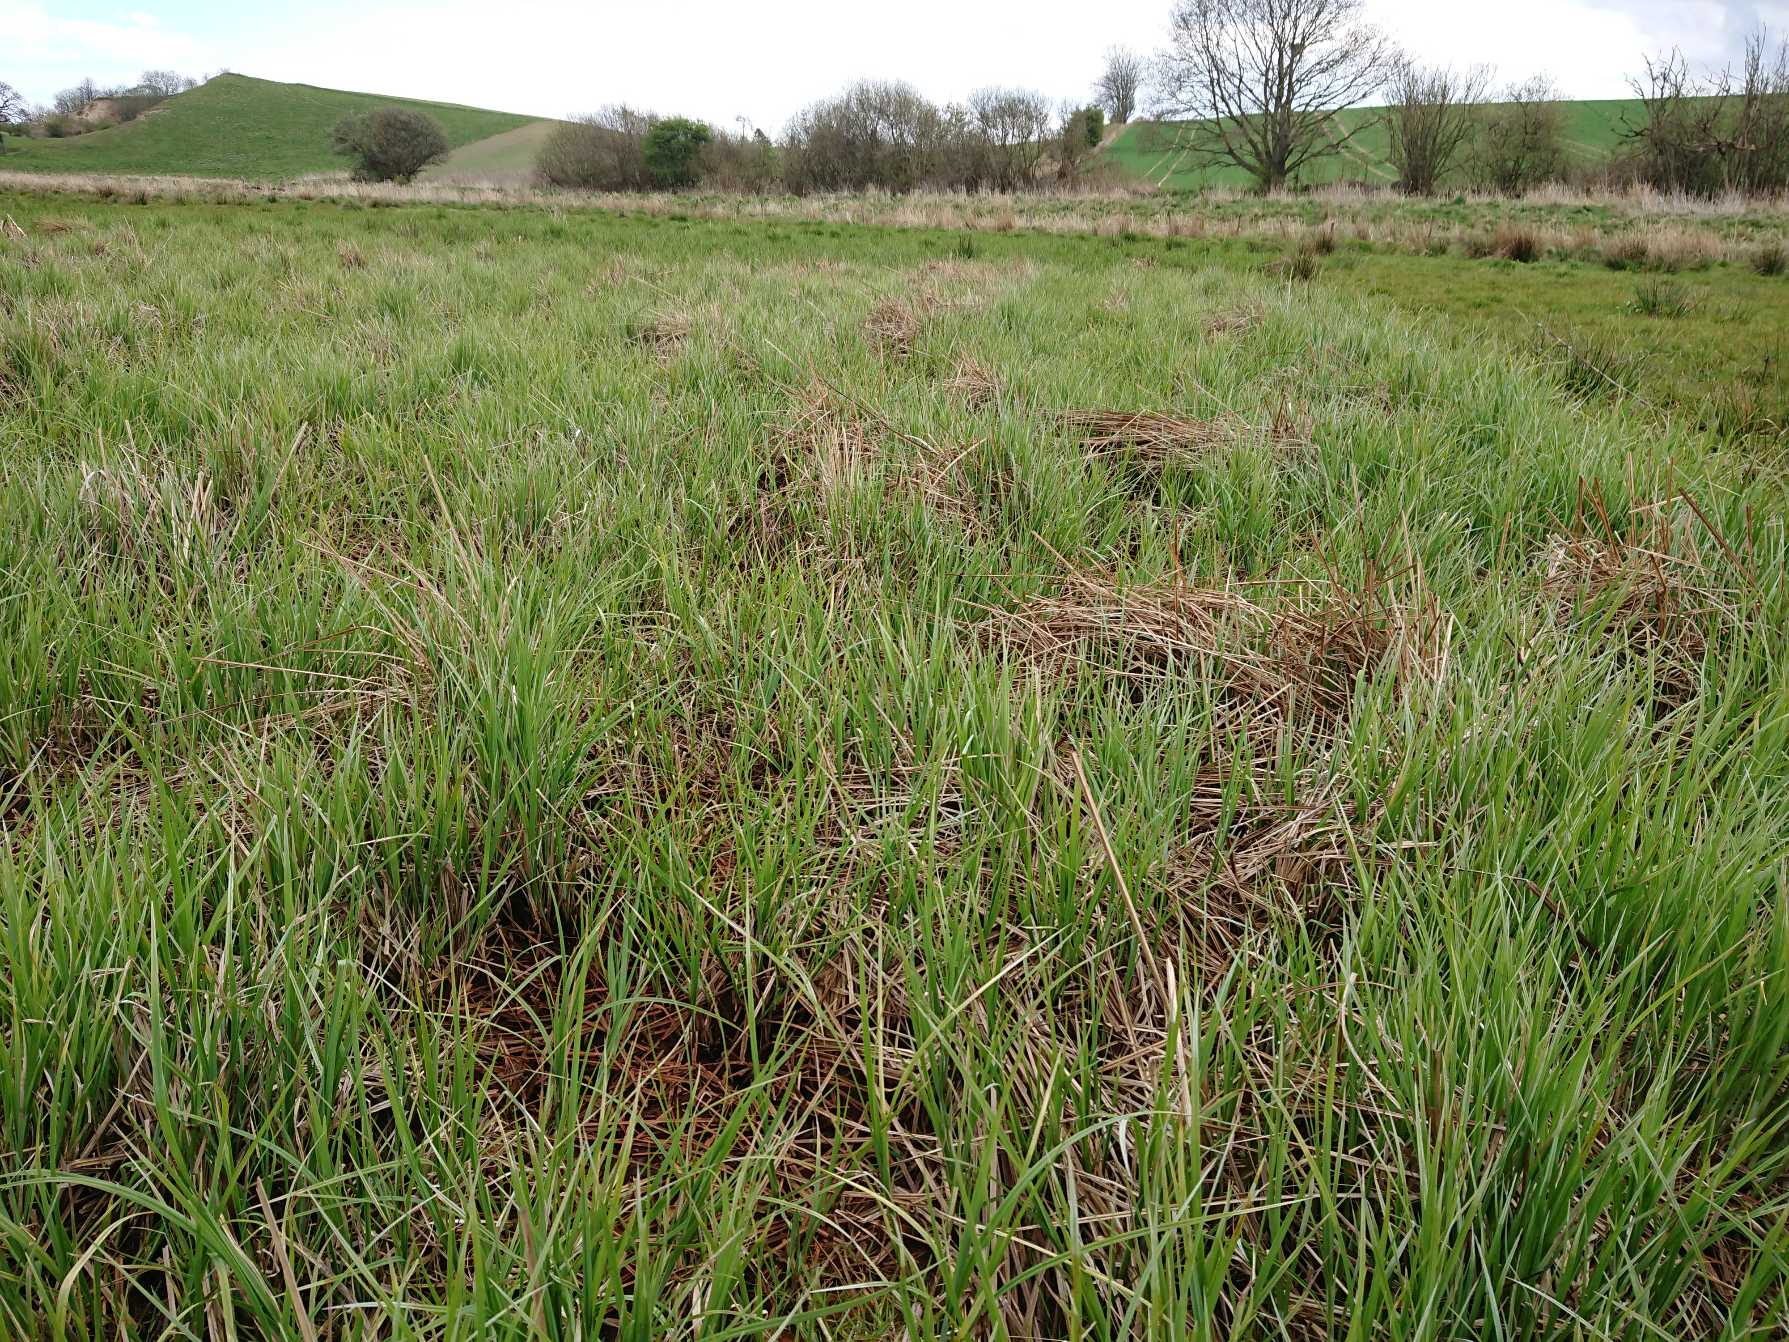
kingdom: Plantae
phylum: Tracheophyta
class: Liliopsida
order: Poales
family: Cyperaceae
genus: Carex
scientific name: Carex acuta
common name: Nikkende star
